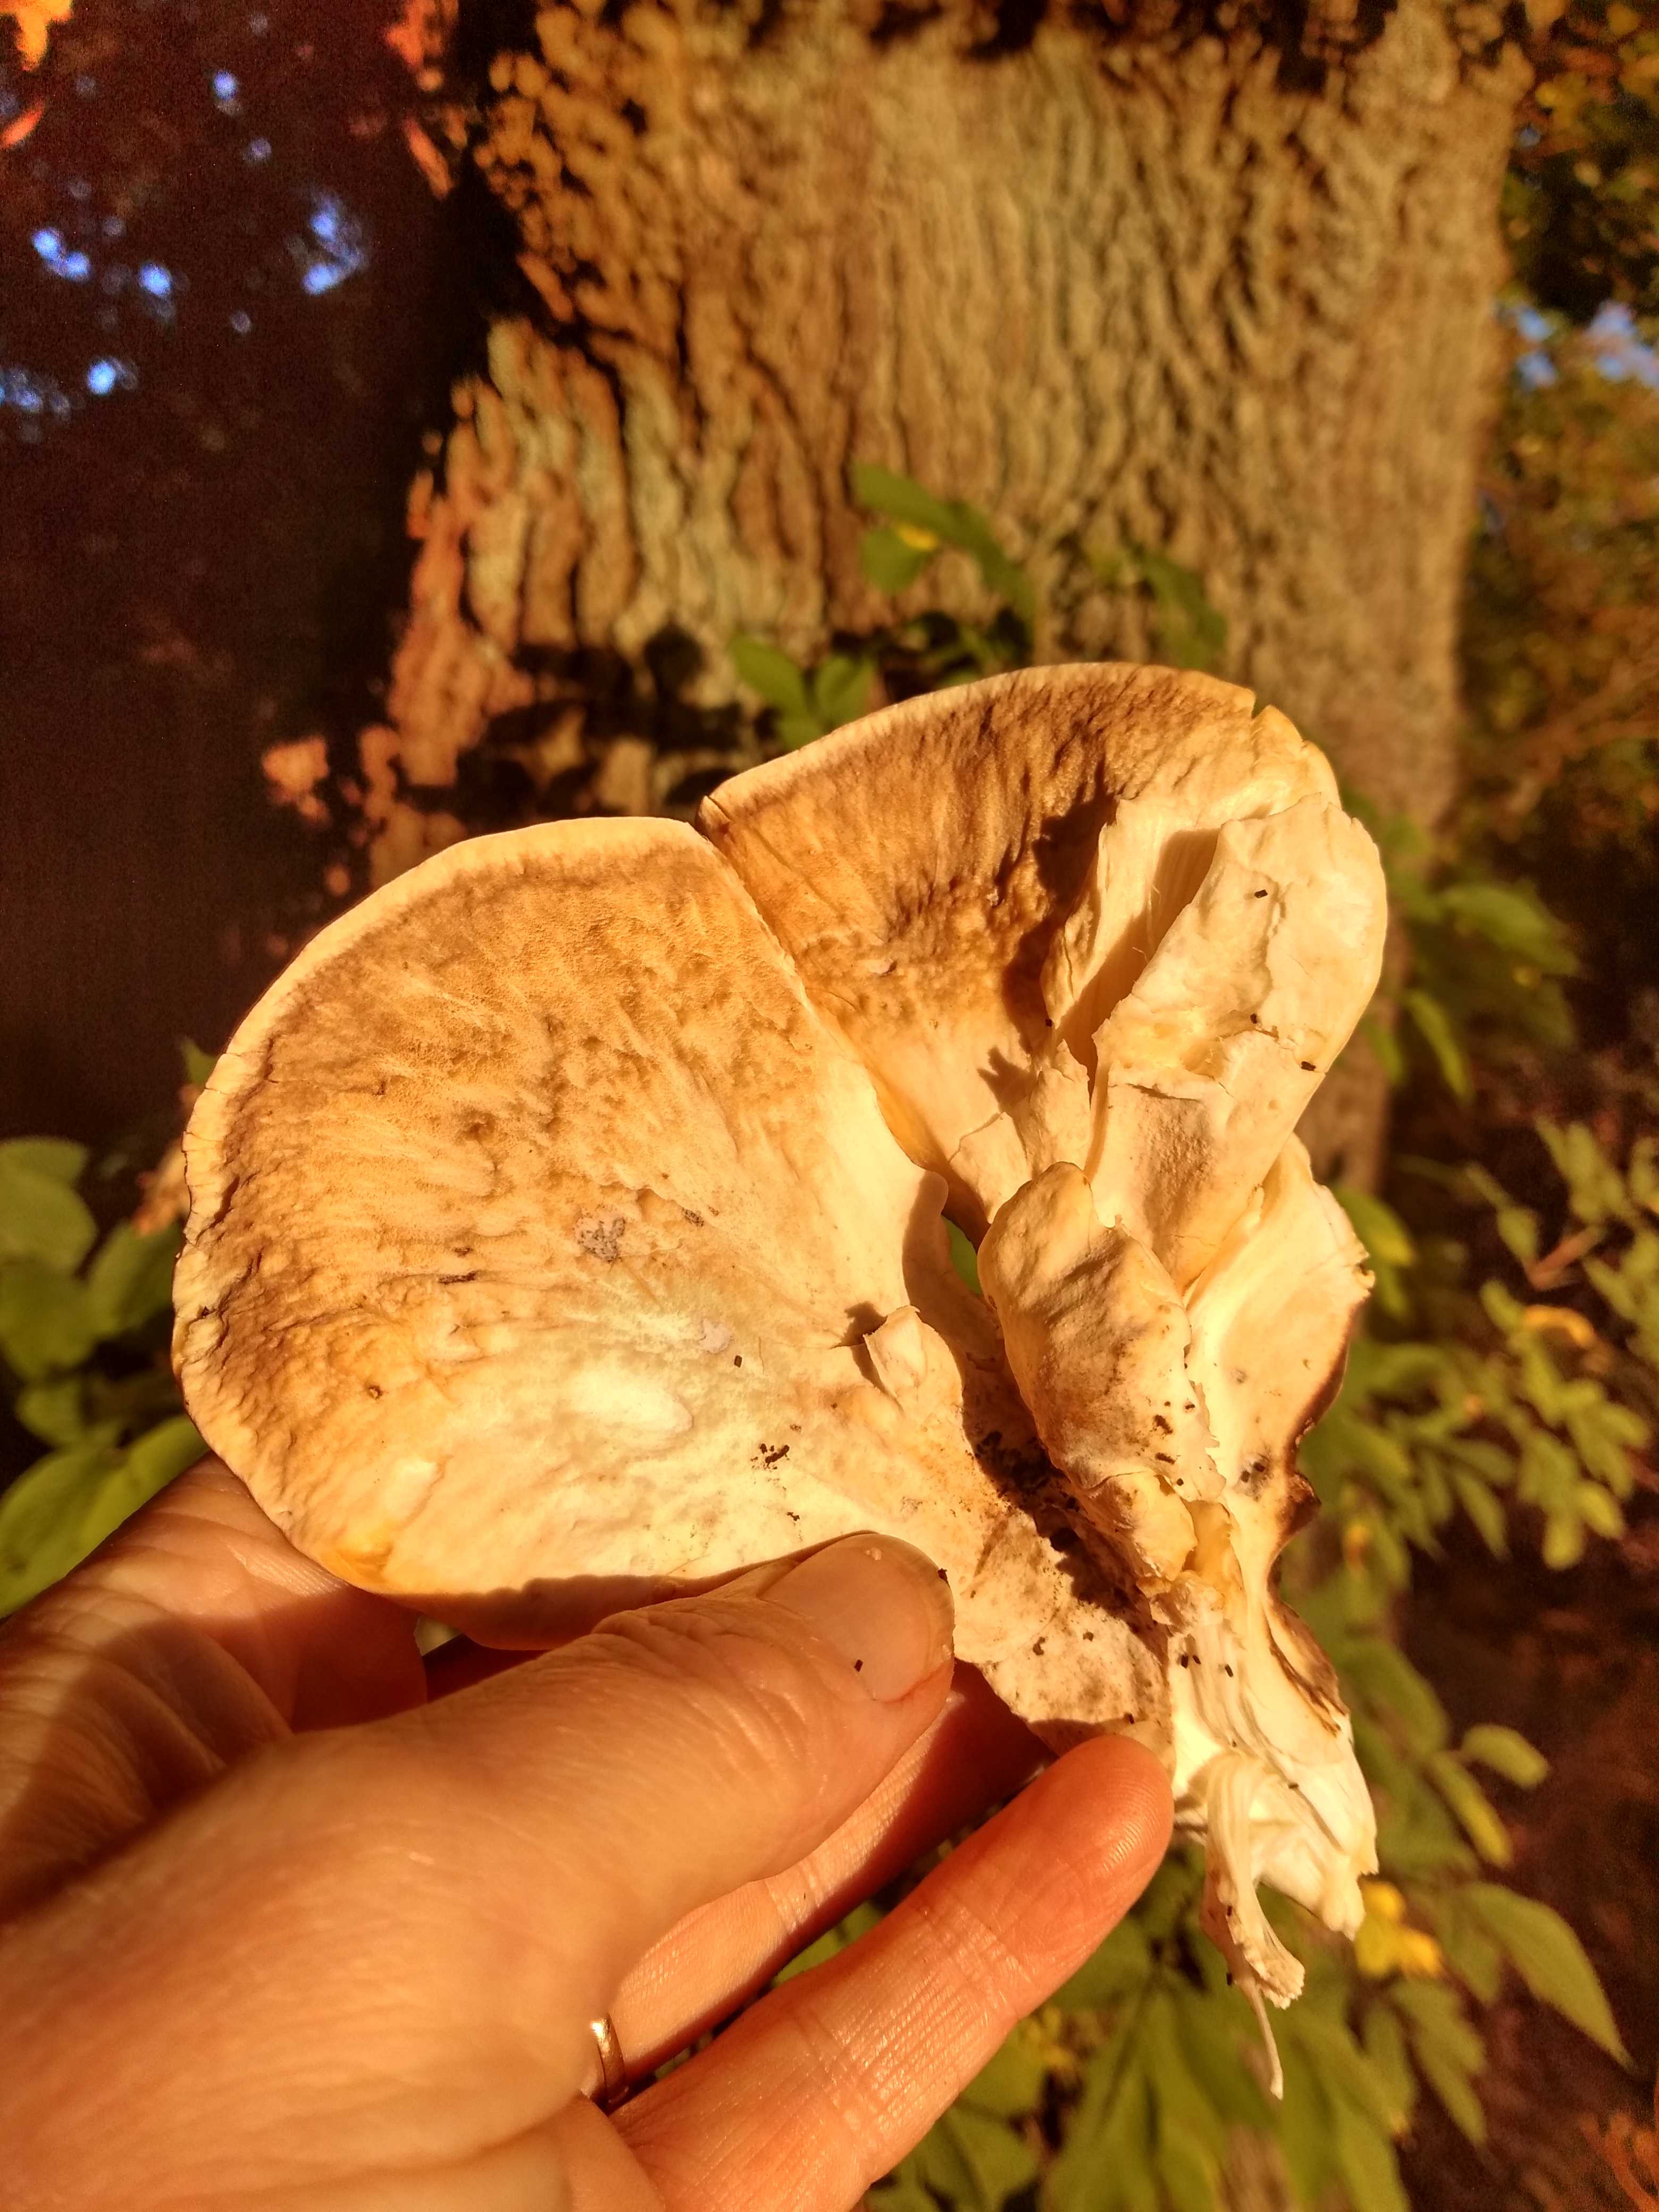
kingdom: Fungi
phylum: Basidiomycota
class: Agaricomycetes
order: Polyporales
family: Meripilaceae
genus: Meripilus
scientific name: Meripilus giganteus
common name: kæmpeporesvamp
